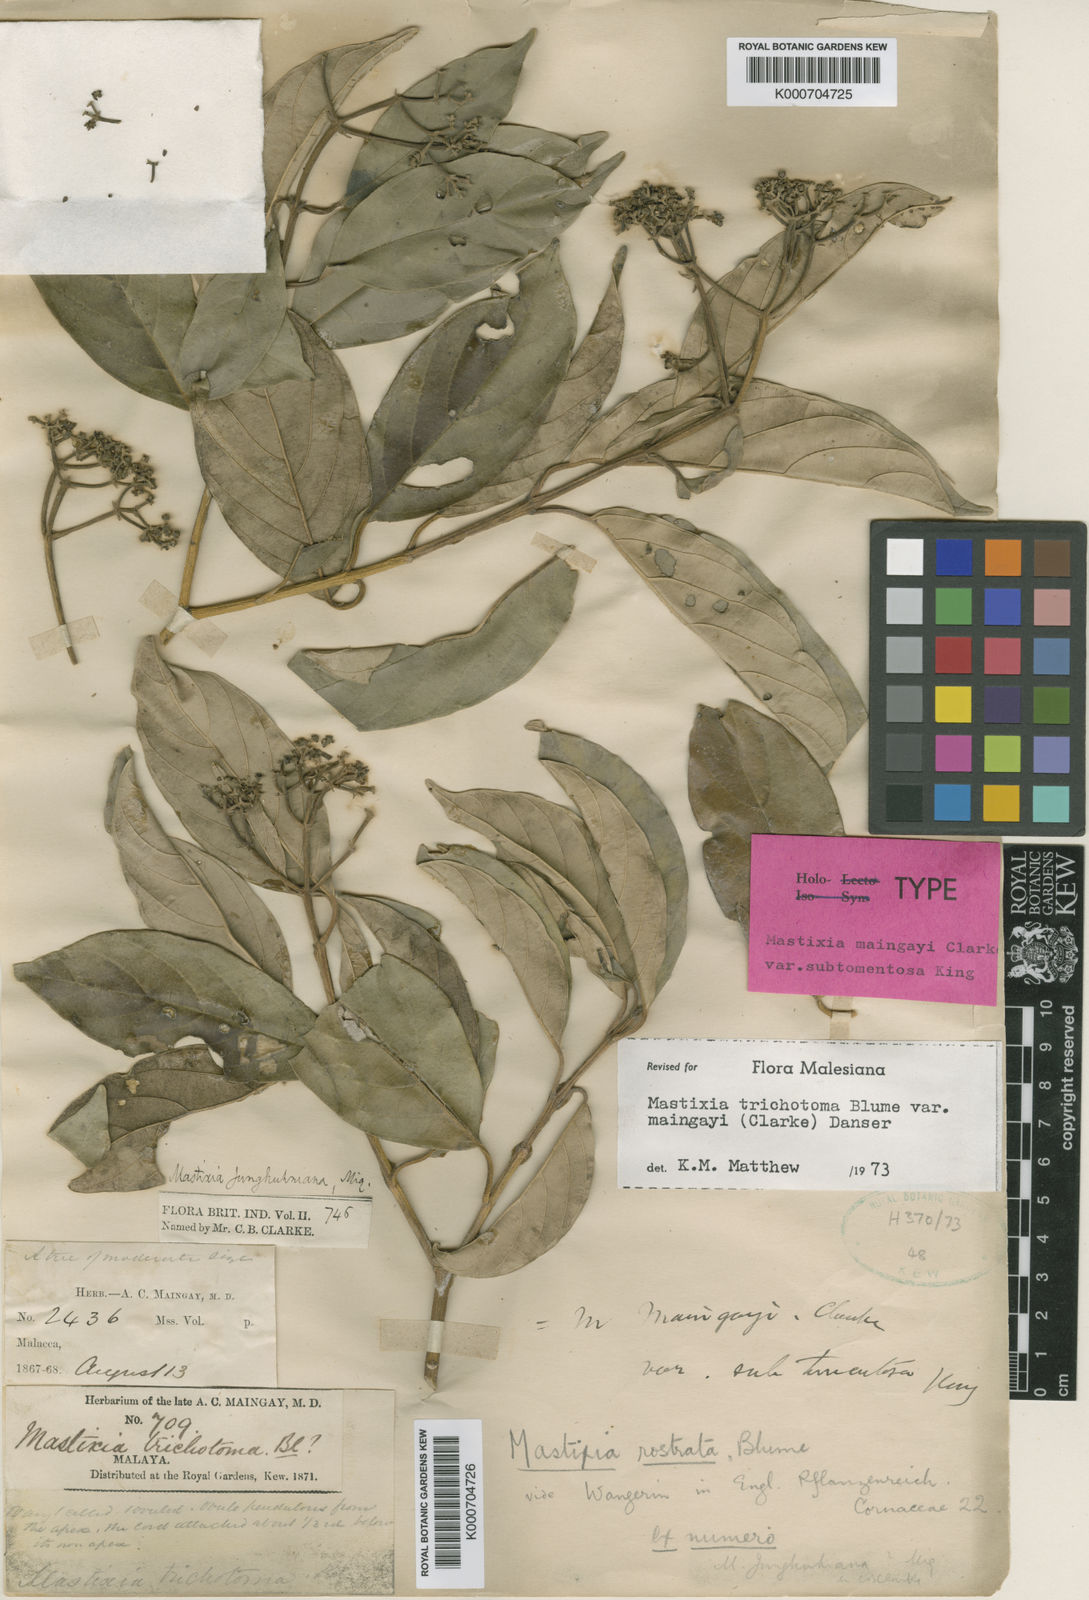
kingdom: Plantae
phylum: Tracheophyta
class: Magnoliopsida
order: Cornales
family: Nyssaceae
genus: Mastixia
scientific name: Mastixia trichotoma
